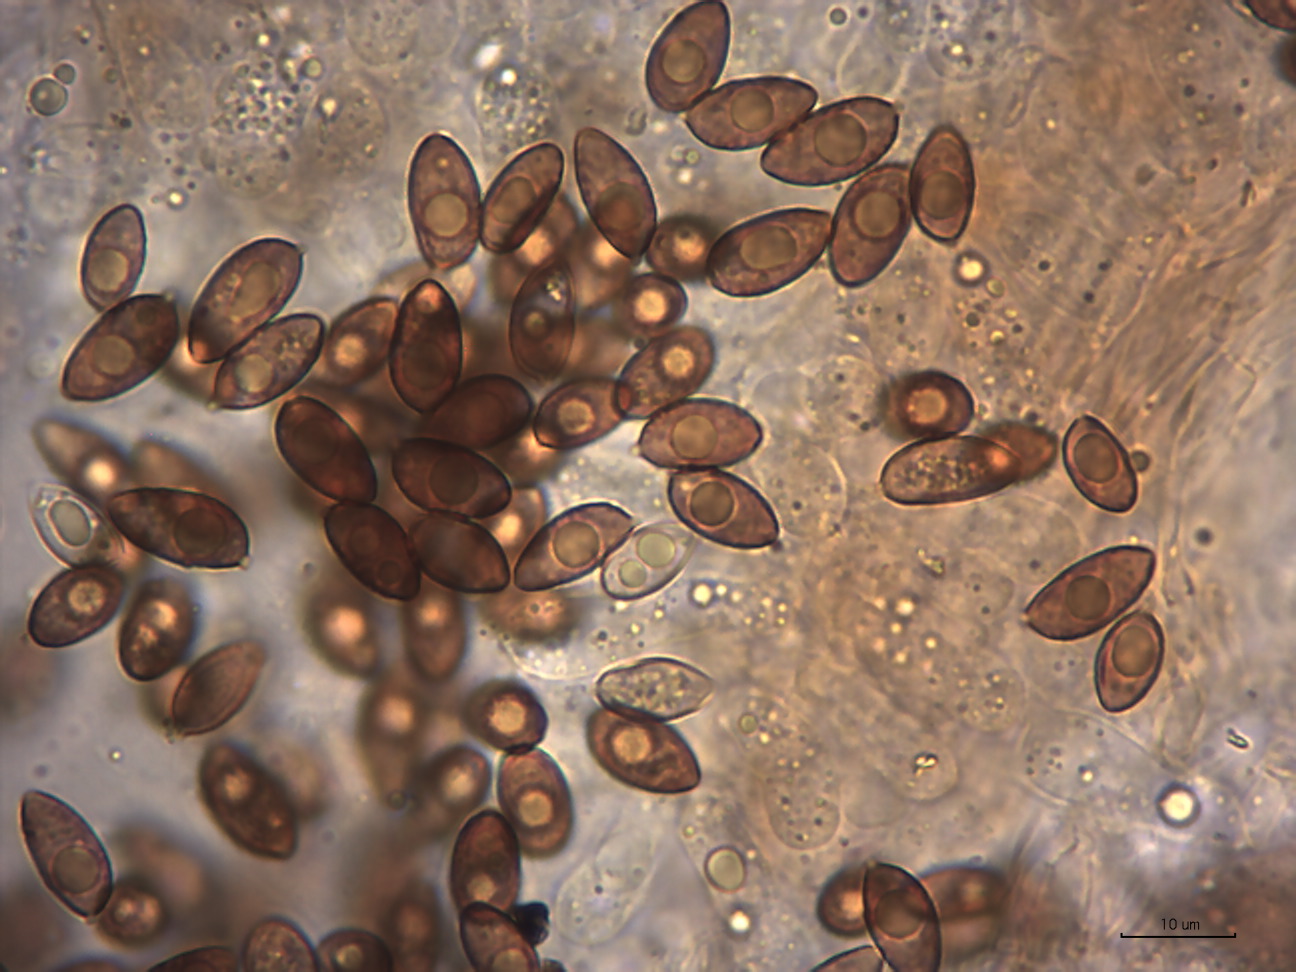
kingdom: Fungi
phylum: Basidiomycota
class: Agaricomycetes
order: Agaricales
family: Hymenogastraceae
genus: Galerina
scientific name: Galerina jaapii
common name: hvidbæltet hjelmhat
